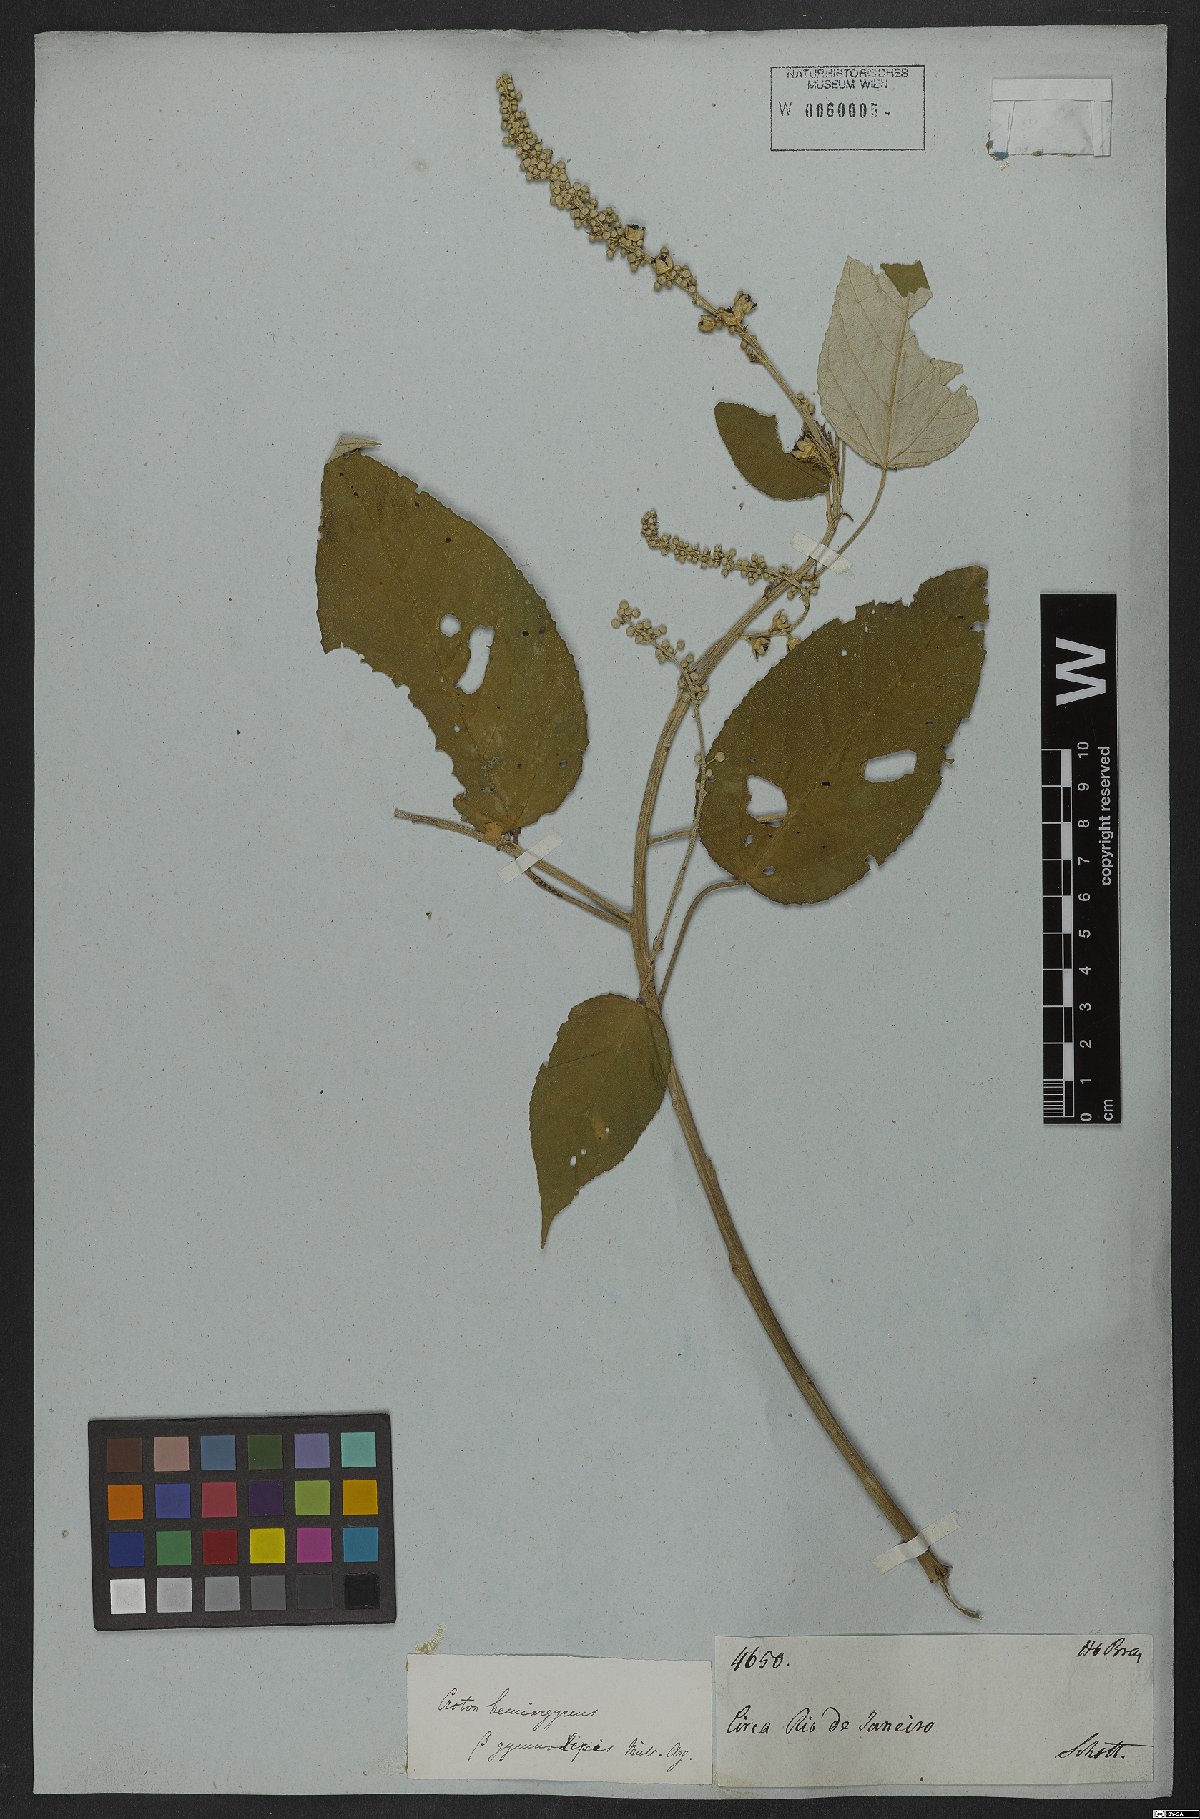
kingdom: Plantae
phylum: Tracheophyta
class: Magnoliopsida
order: Malpighiales
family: Euphorbiaceae
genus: Croton
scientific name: Croton hemiargyreus
